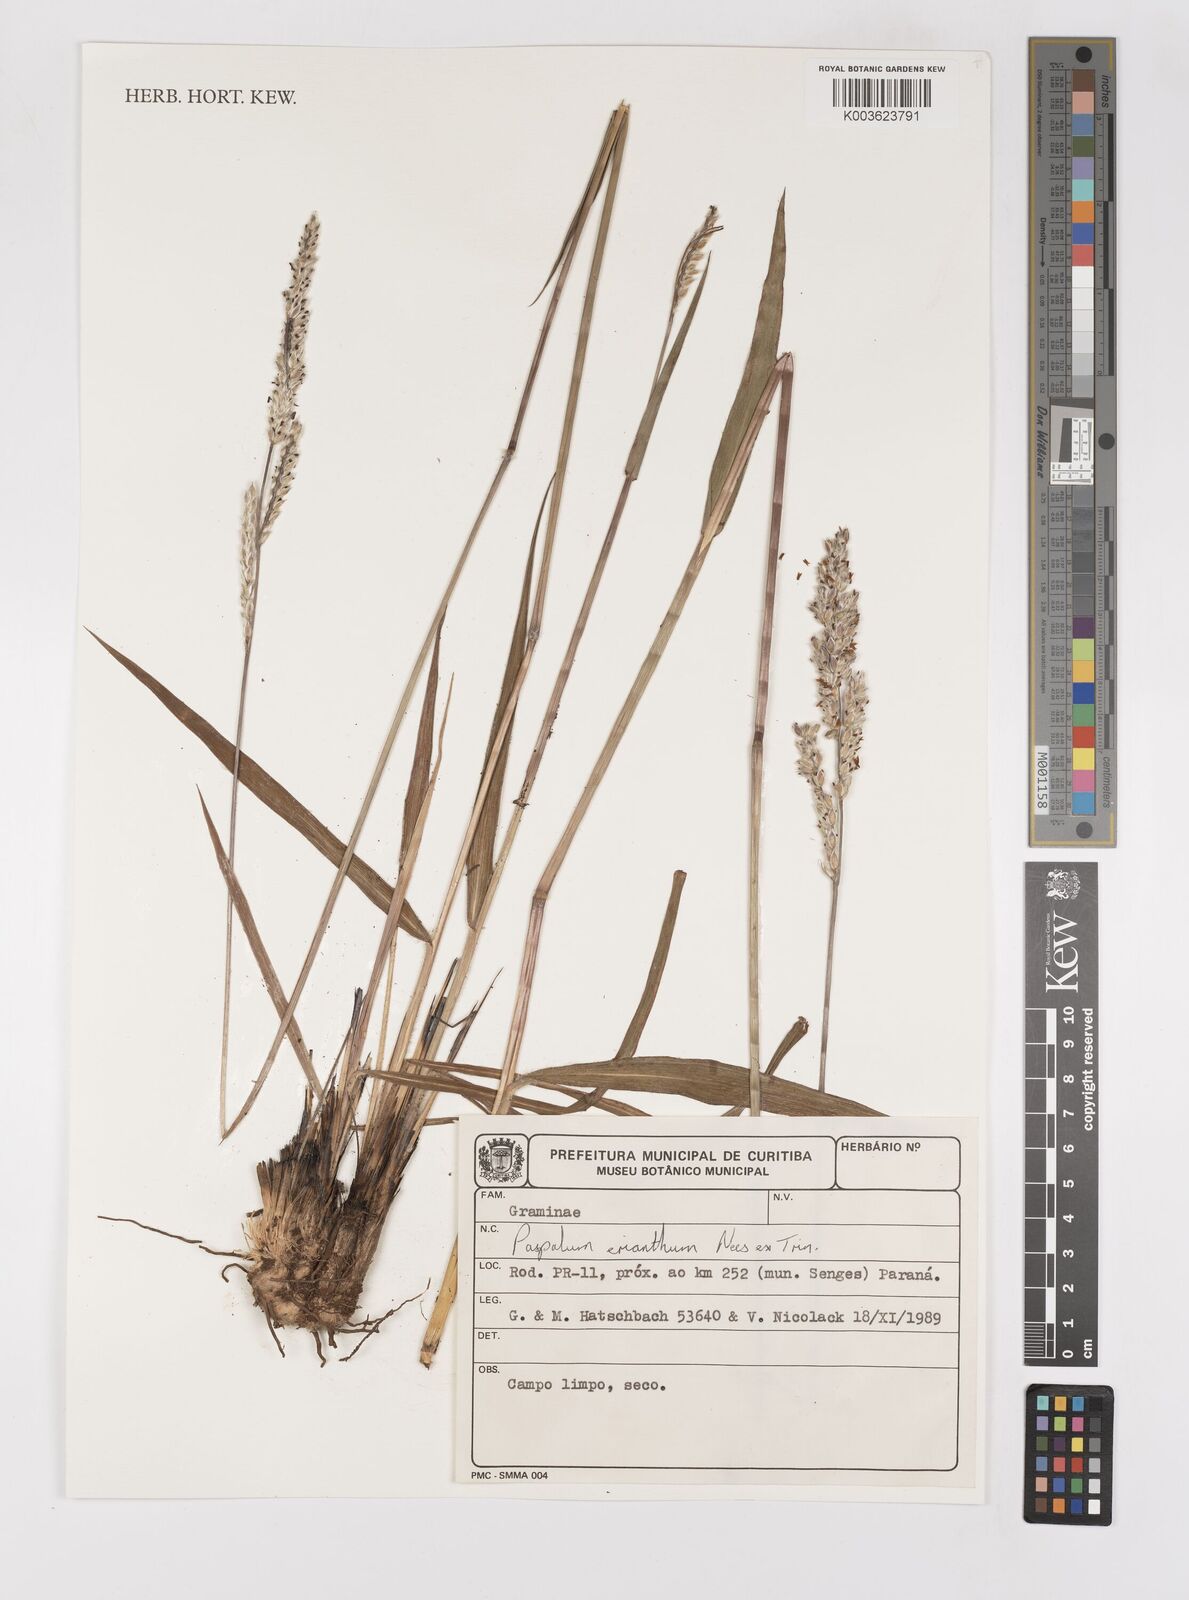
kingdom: Plantae
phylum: Tracheophyta
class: Liliopsida
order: Poales
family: Poaceae
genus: Paspalum
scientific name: Paspalum erianthum
